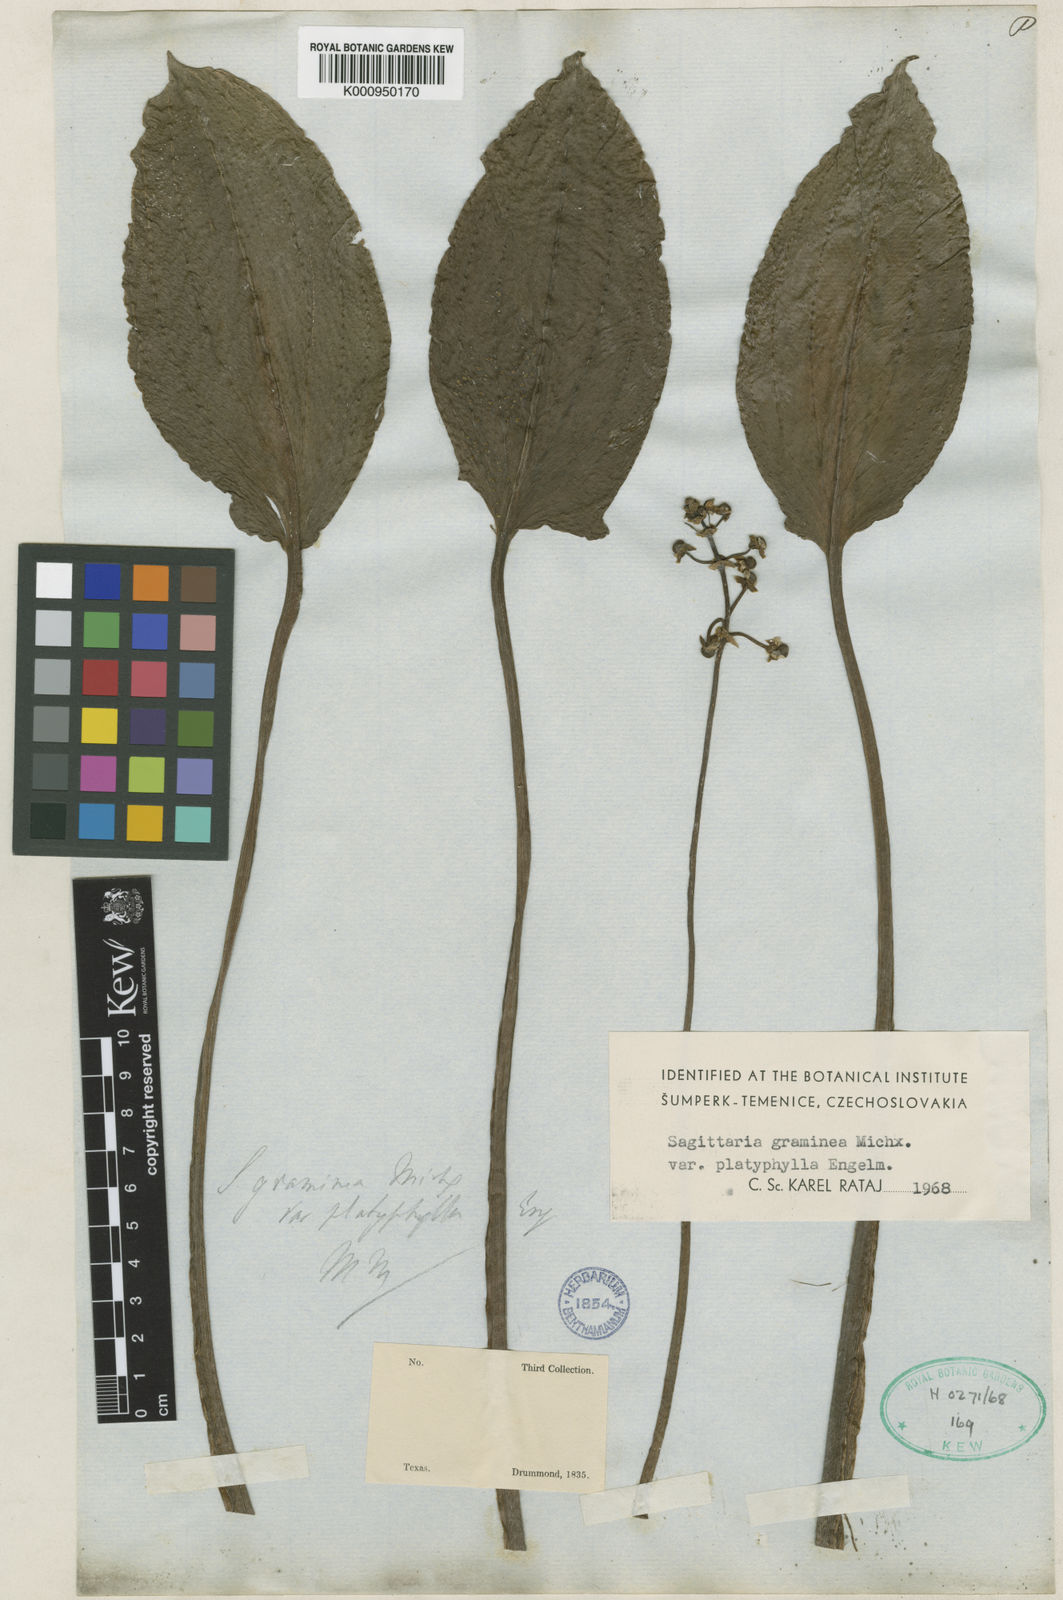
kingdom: Plantae
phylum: Tracheophyta
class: Liliopsida
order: Alismatales
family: Alismataceae
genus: Sagittaria
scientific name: Sagittaria graminea
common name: Grass-leaved arrowhead
